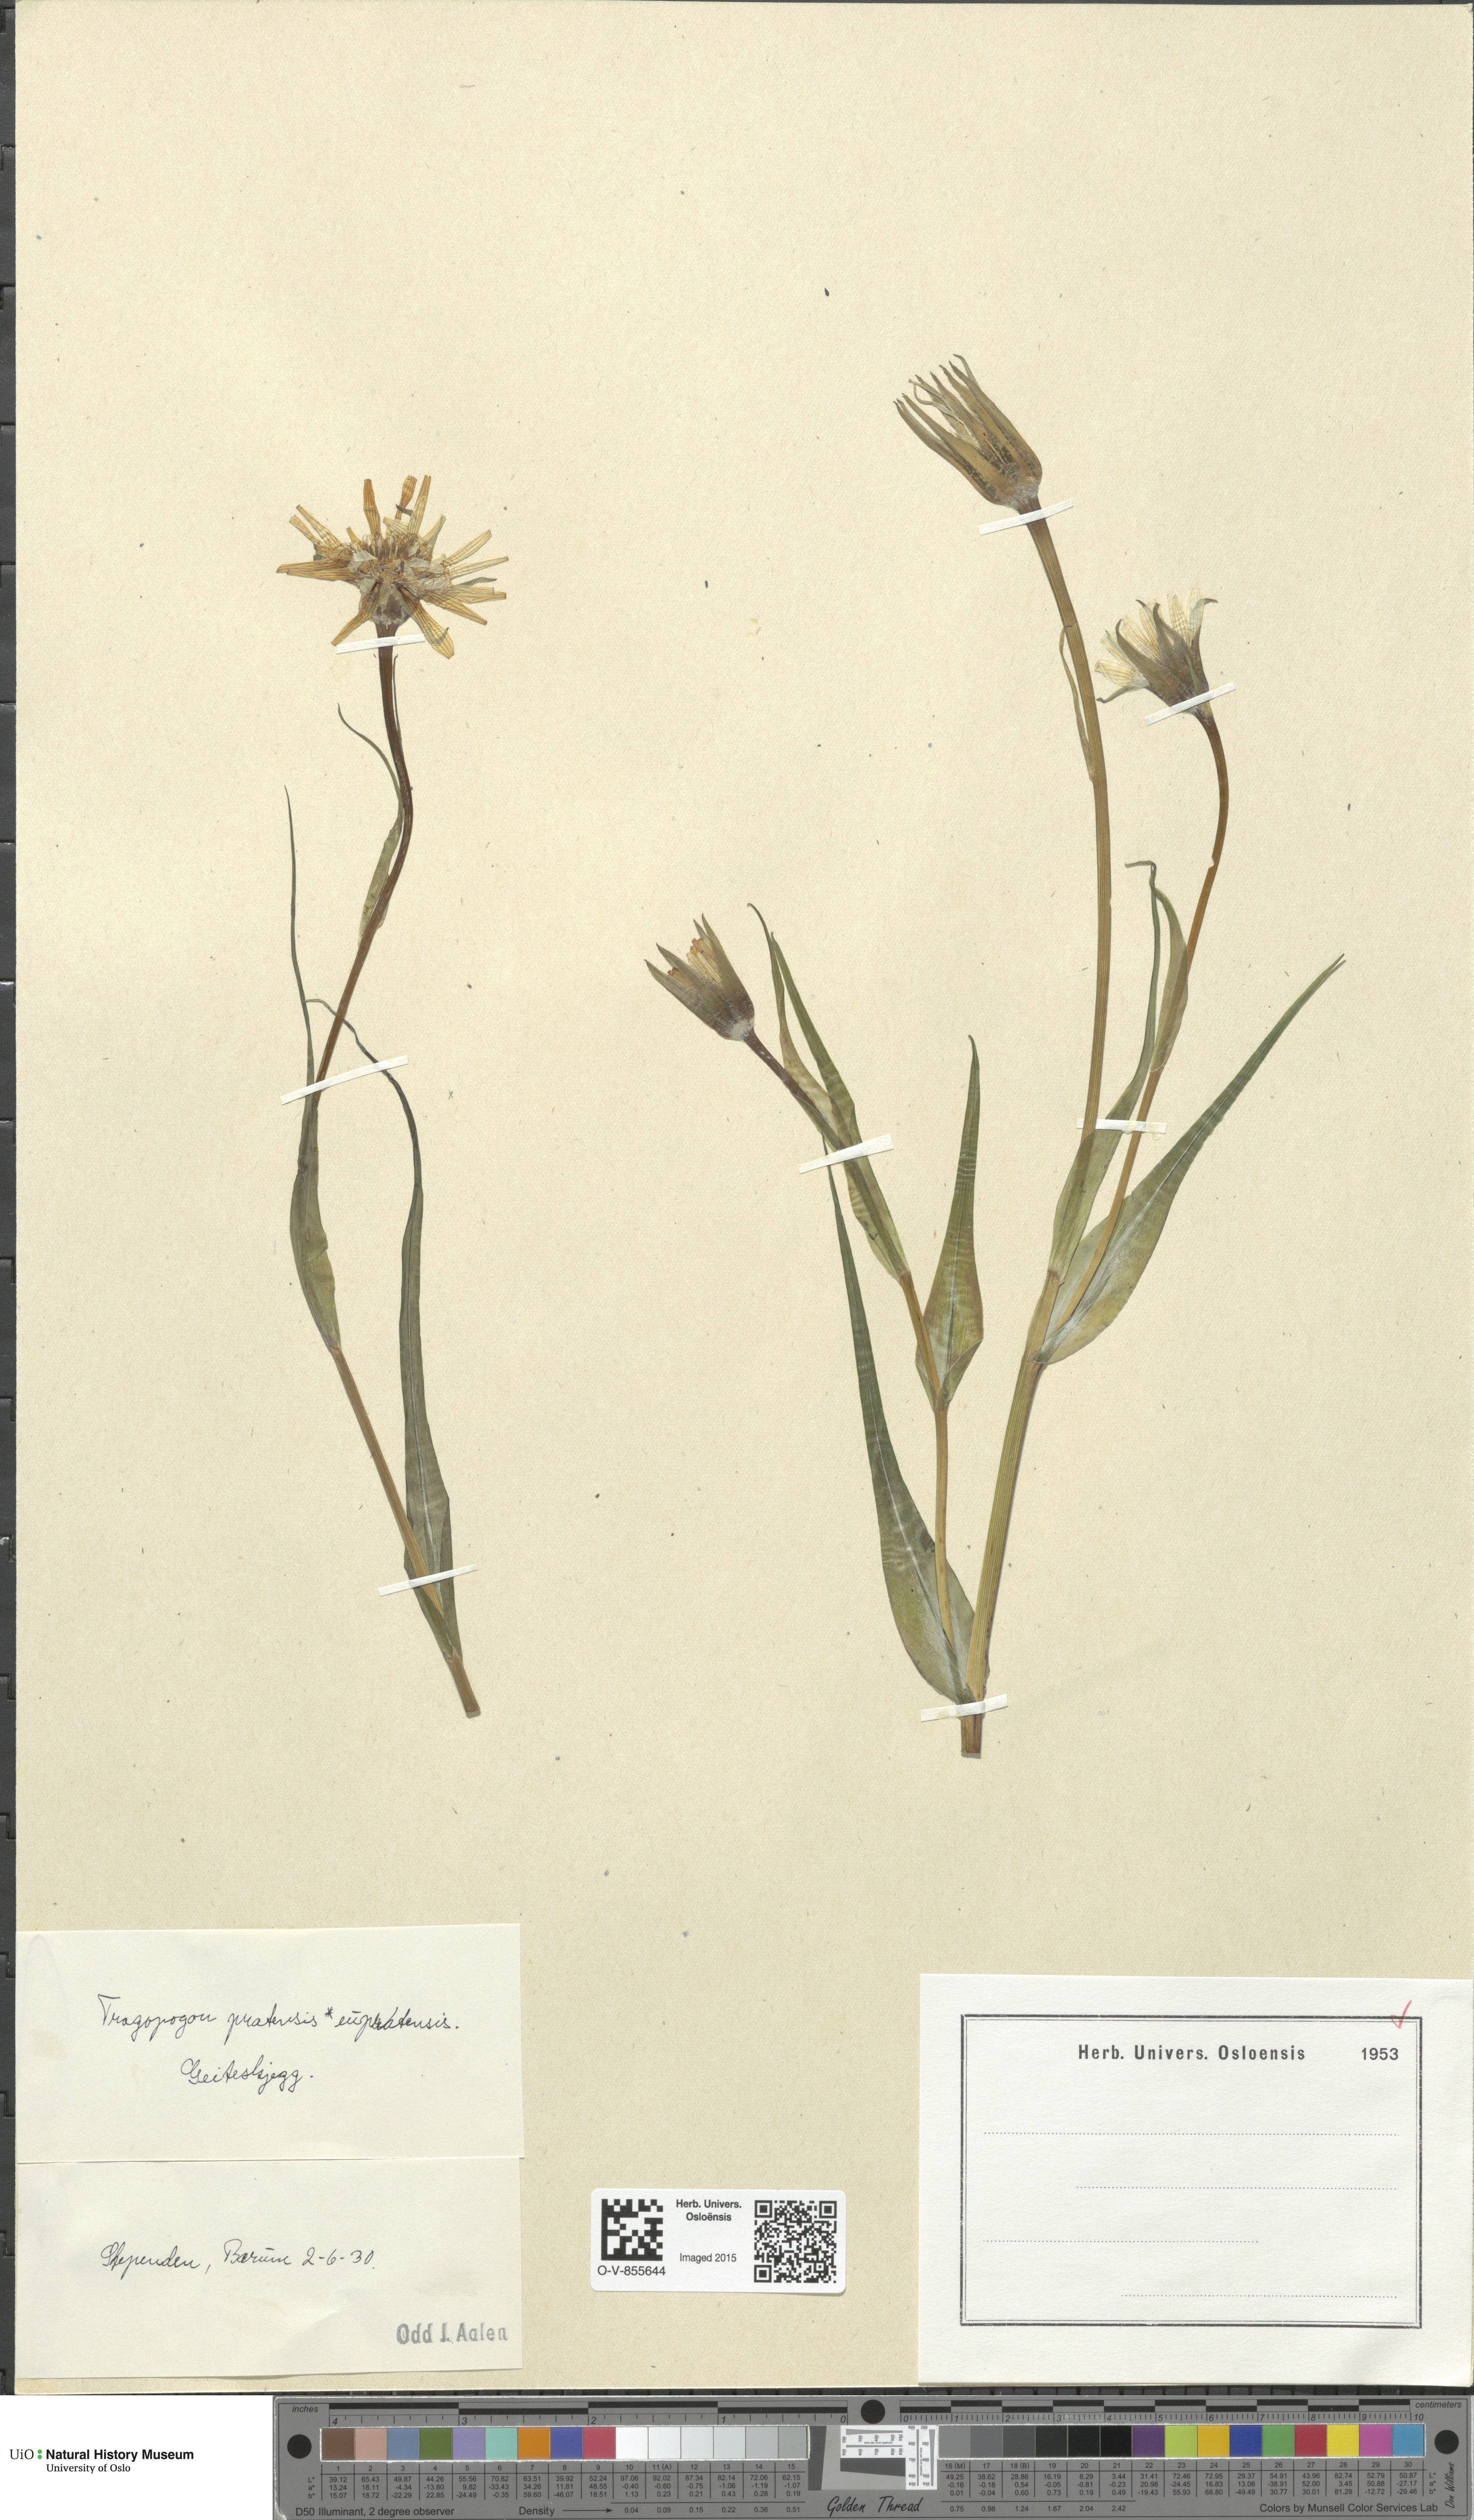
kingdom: Plantae
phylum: Tracheophyta
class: Magnoliopsida
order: Asterales
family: Asteraceae
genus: Tragopogon
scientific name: Tragopogon pratensis
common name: Goat's-beard
